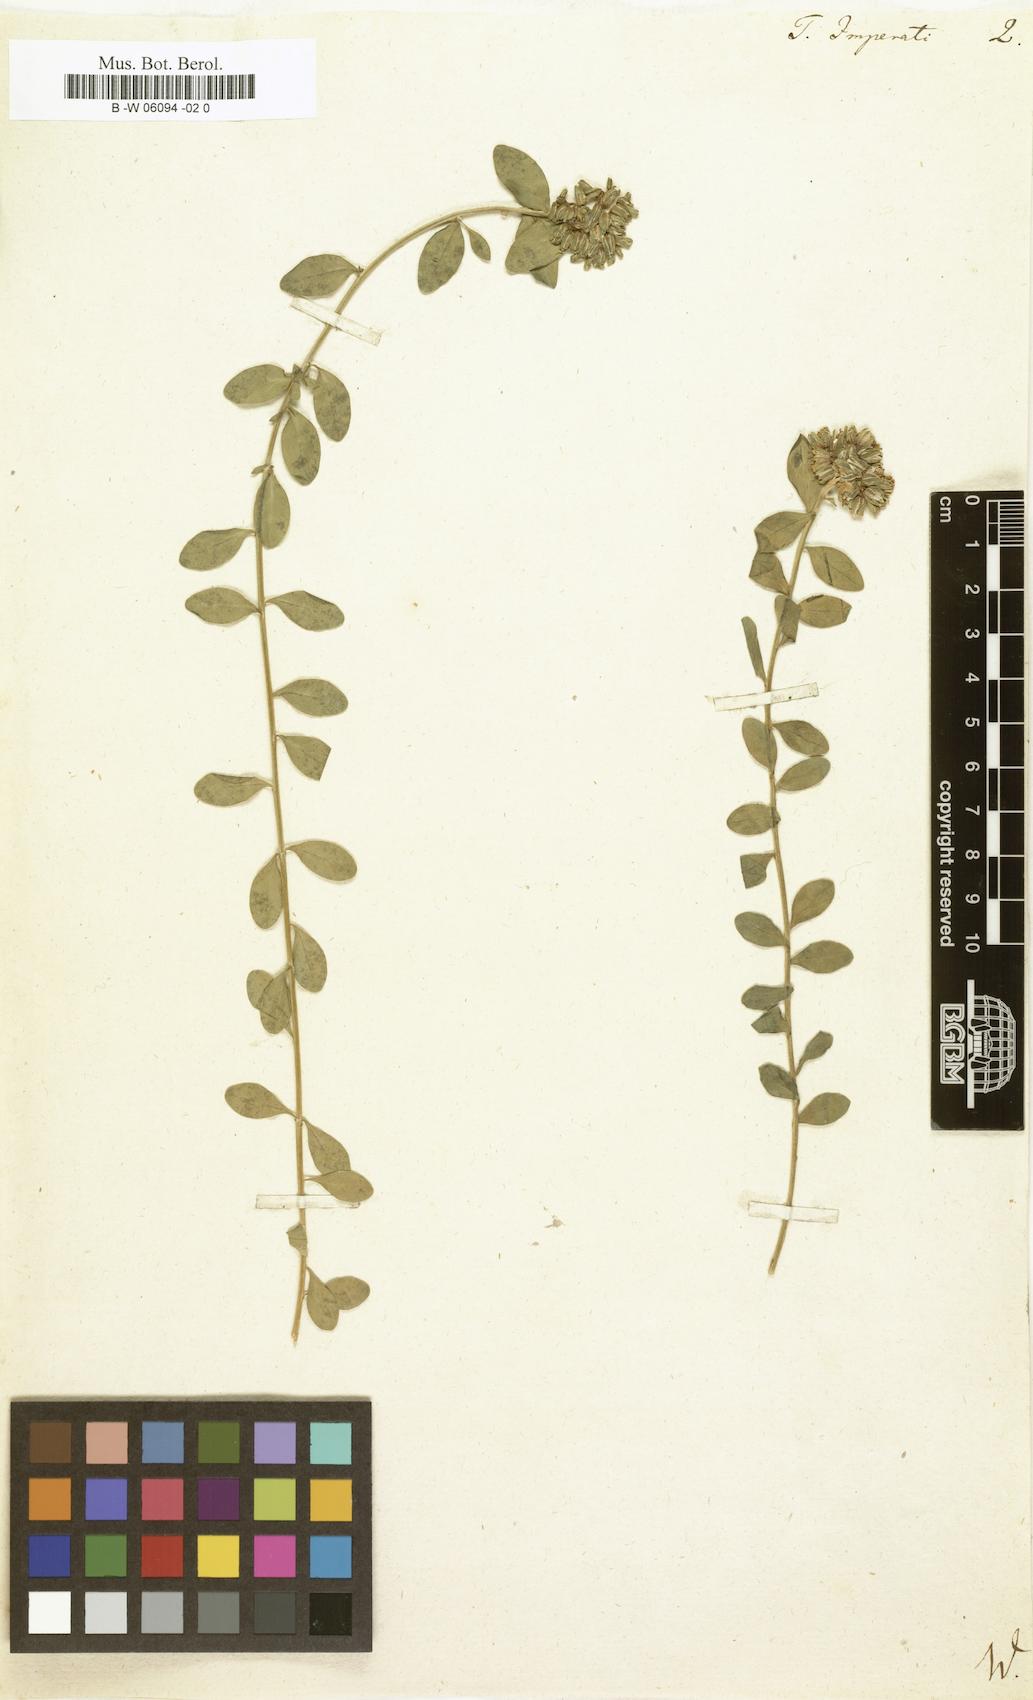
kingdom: Plantae
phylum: Tracheophyta
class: Magnoliopsida
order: Caryophyllales
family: Caryophyllaceae
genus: Telephium
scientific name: Telephium imperati
